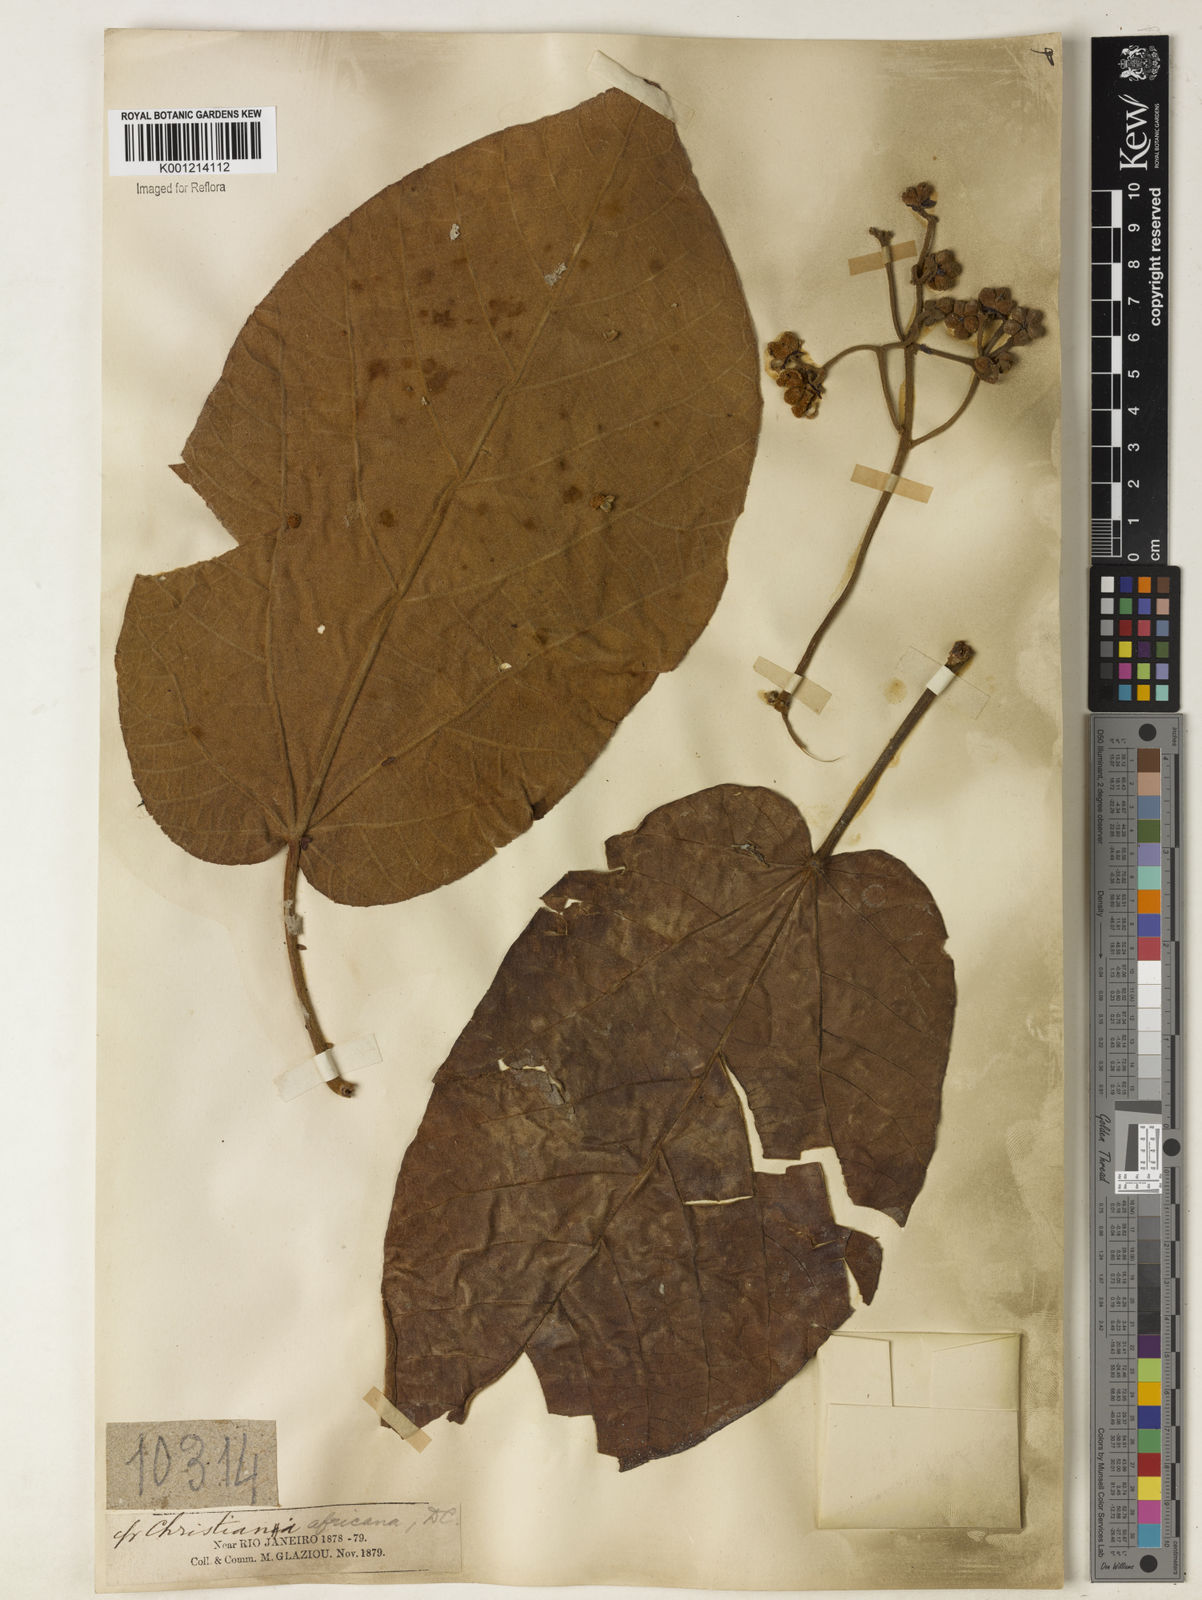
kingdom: Plantae
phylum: Tracheophyta
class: Magnoliopsida
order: Malvales
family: Malvaceae
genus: Christiana
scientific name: Christiana africana
